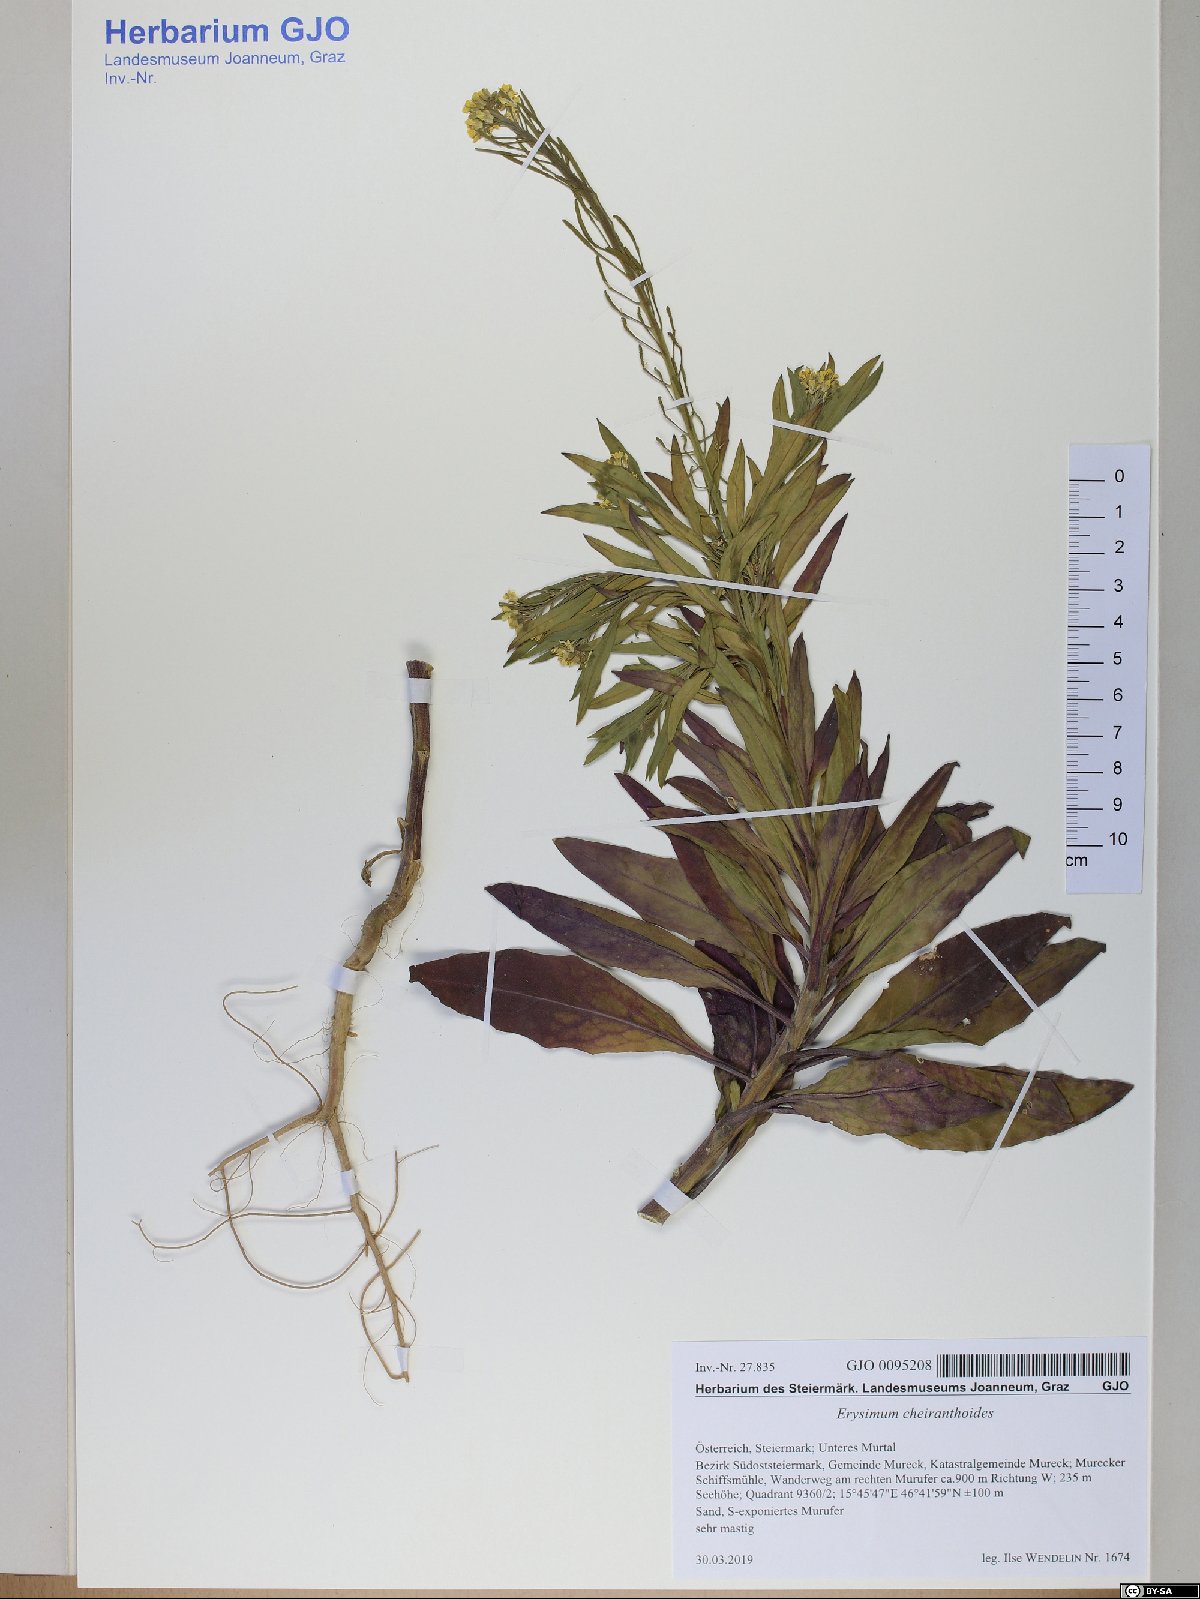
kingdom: Plantae
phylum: Tracheophyta
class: Magnoliopsida
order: Brassicales
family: Brassicaceae
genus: Erysimum
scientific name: Erysimum cheiranthoides
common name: Treacle mustard
